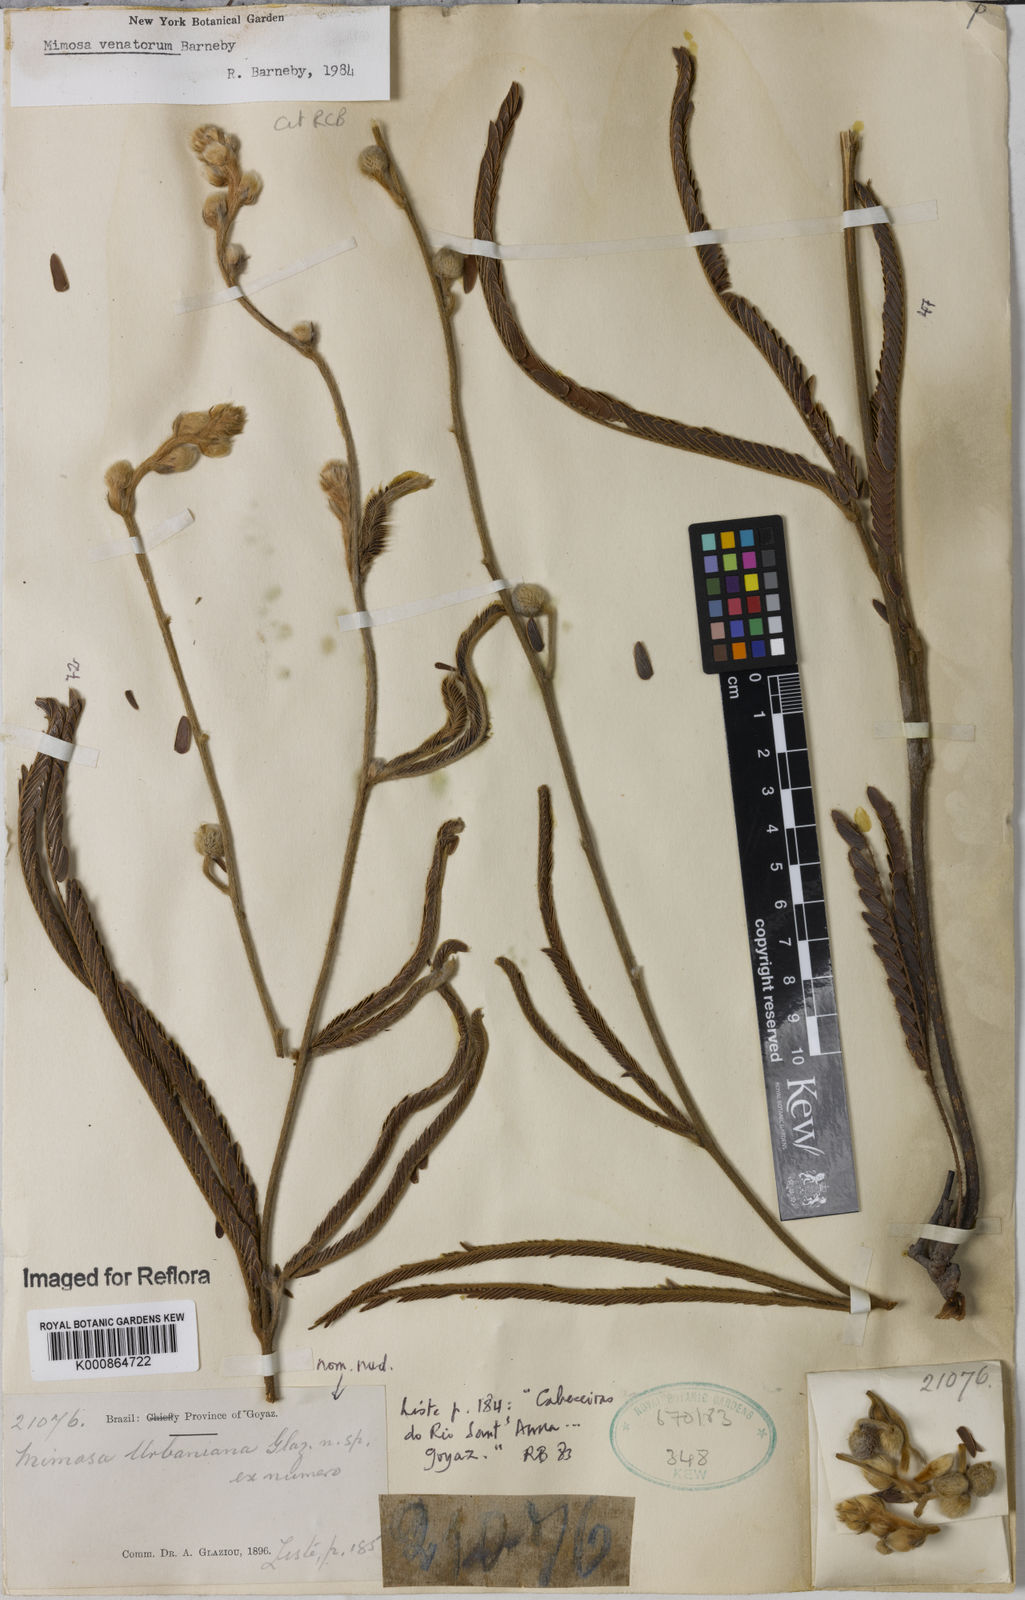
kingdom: Plantae
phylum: Tracheophyta
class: Magnoliopsida
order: Fabales
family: Fabaceae
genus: Mimosa
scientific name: Mimosa
